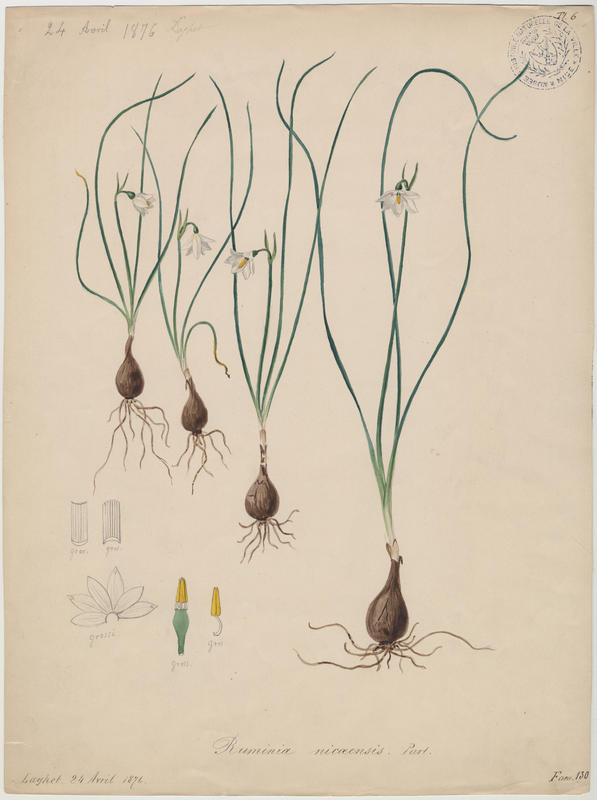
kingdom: Plantae
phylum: Tracheophyta
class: Liliopsida
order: Asparagales
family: Amaryllidaceae
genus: Acis
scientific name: Acis nicaeensis
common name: French snowflake
